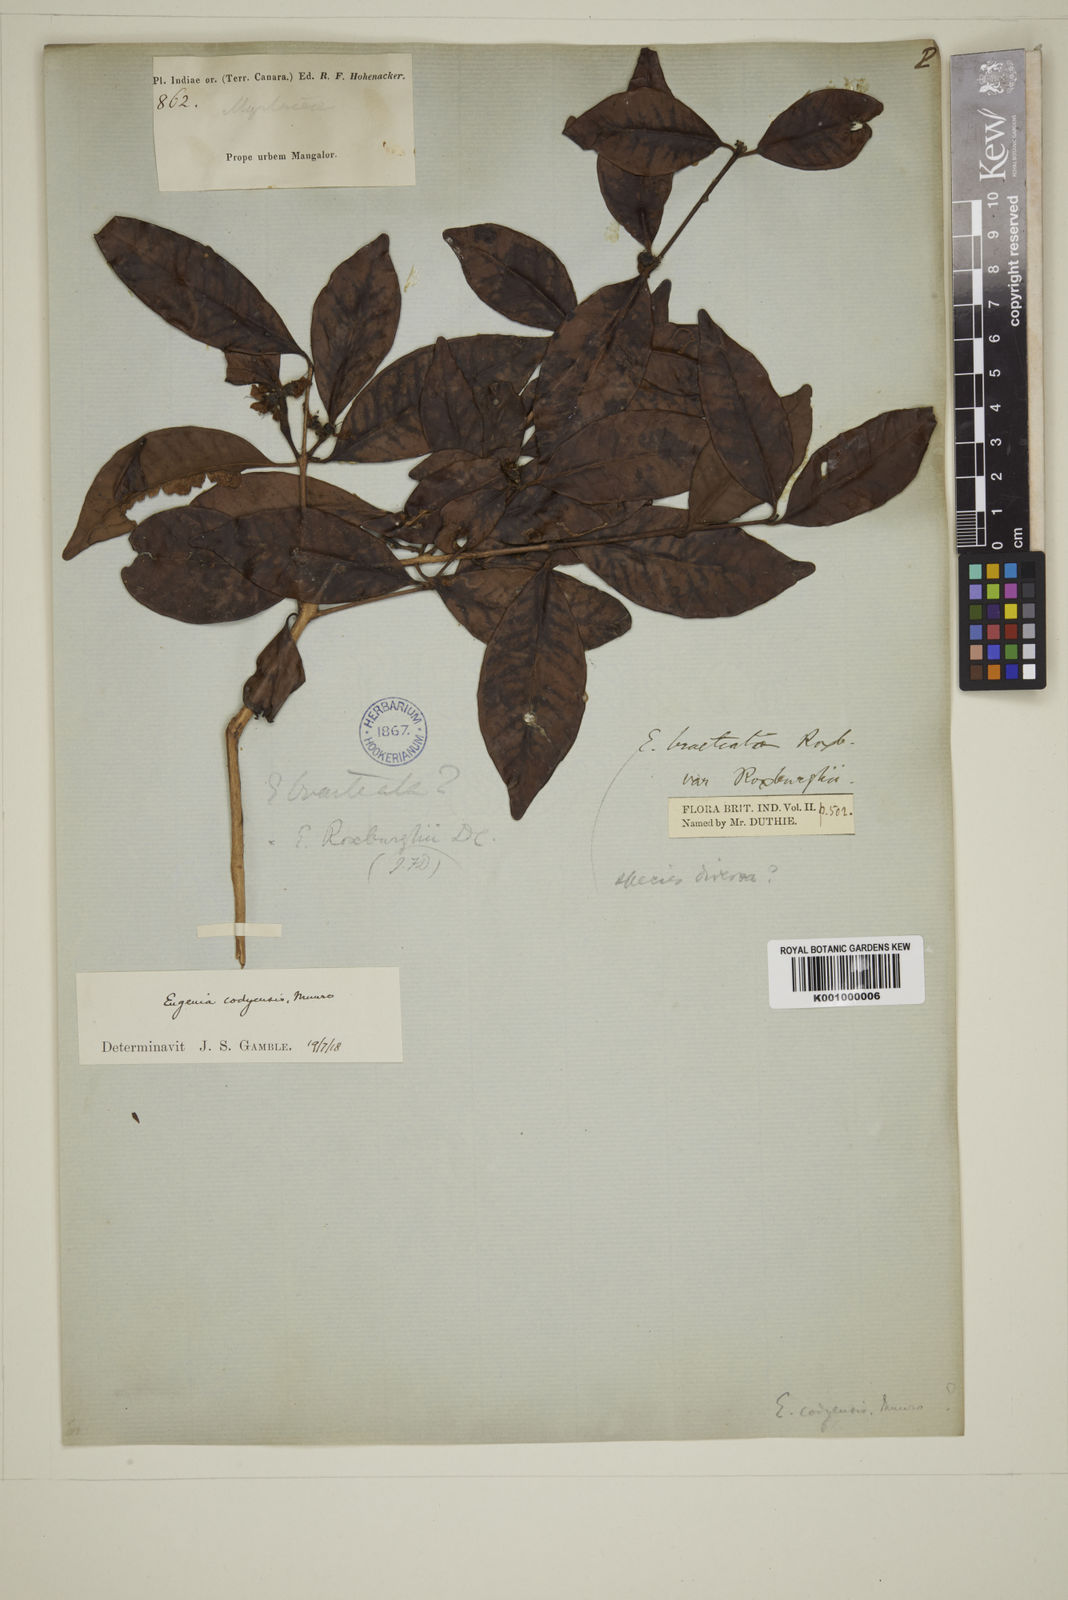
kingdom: Plantae
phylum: Tracheophyta
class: Magnoliopsida
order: Myrtales
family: Myrtaceae
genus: Eugenia
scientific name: Eugenia codyensis
